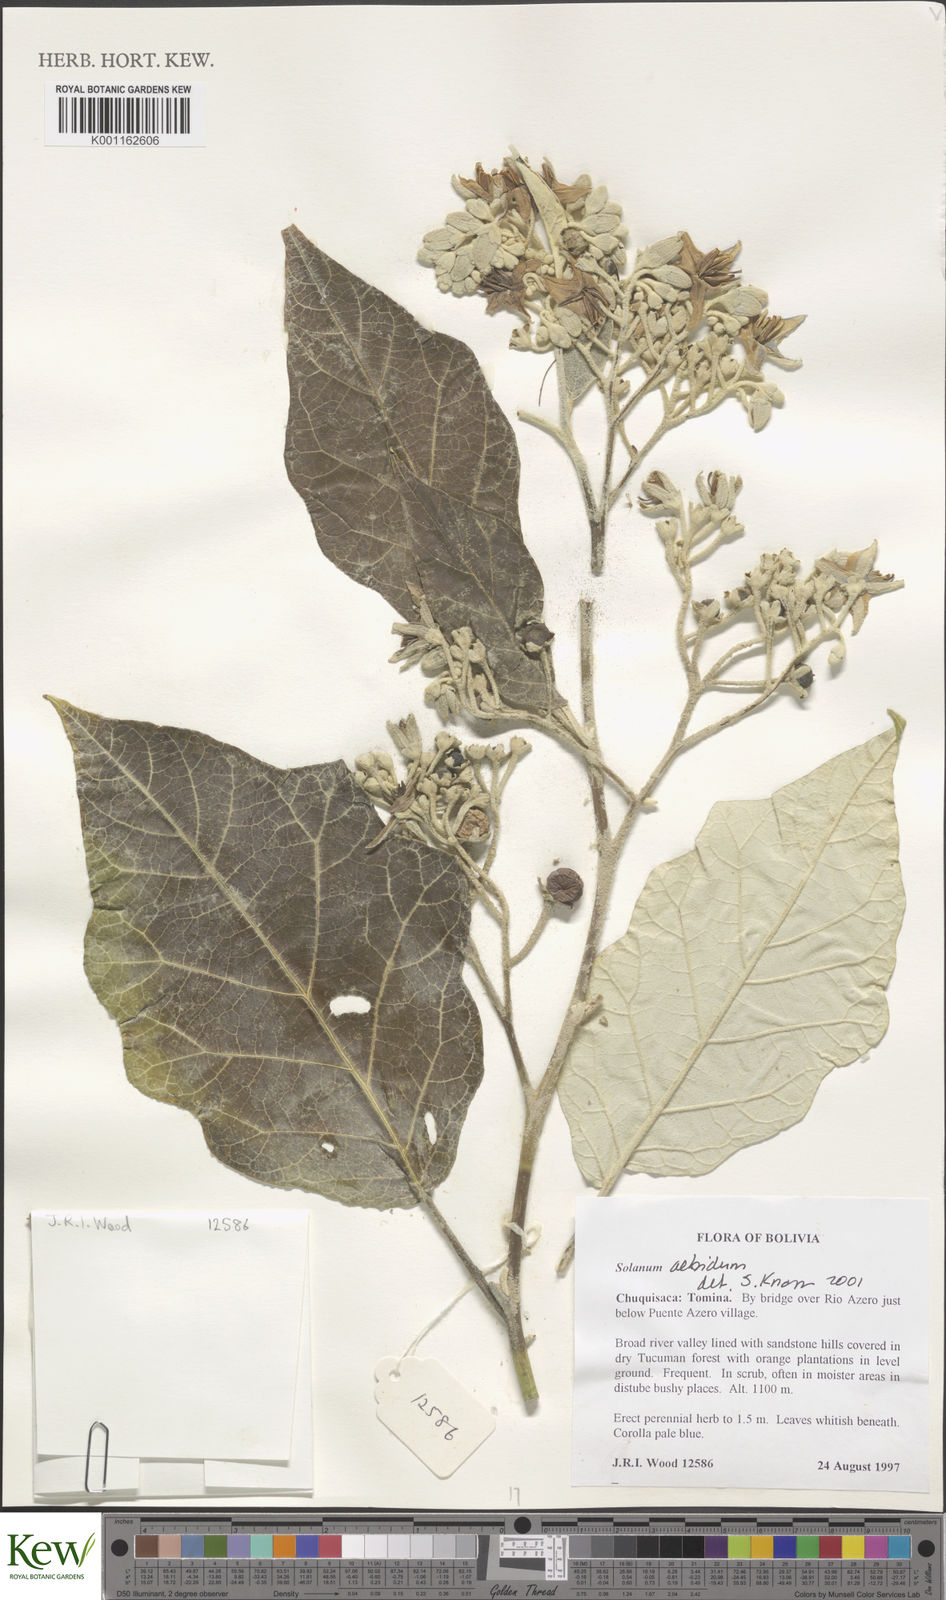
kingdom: Plantae
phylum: Tracheophyta
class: Magnoliopsida
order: Solanales
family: Solanaceae
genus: Solanum
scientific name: Solanum albidum
